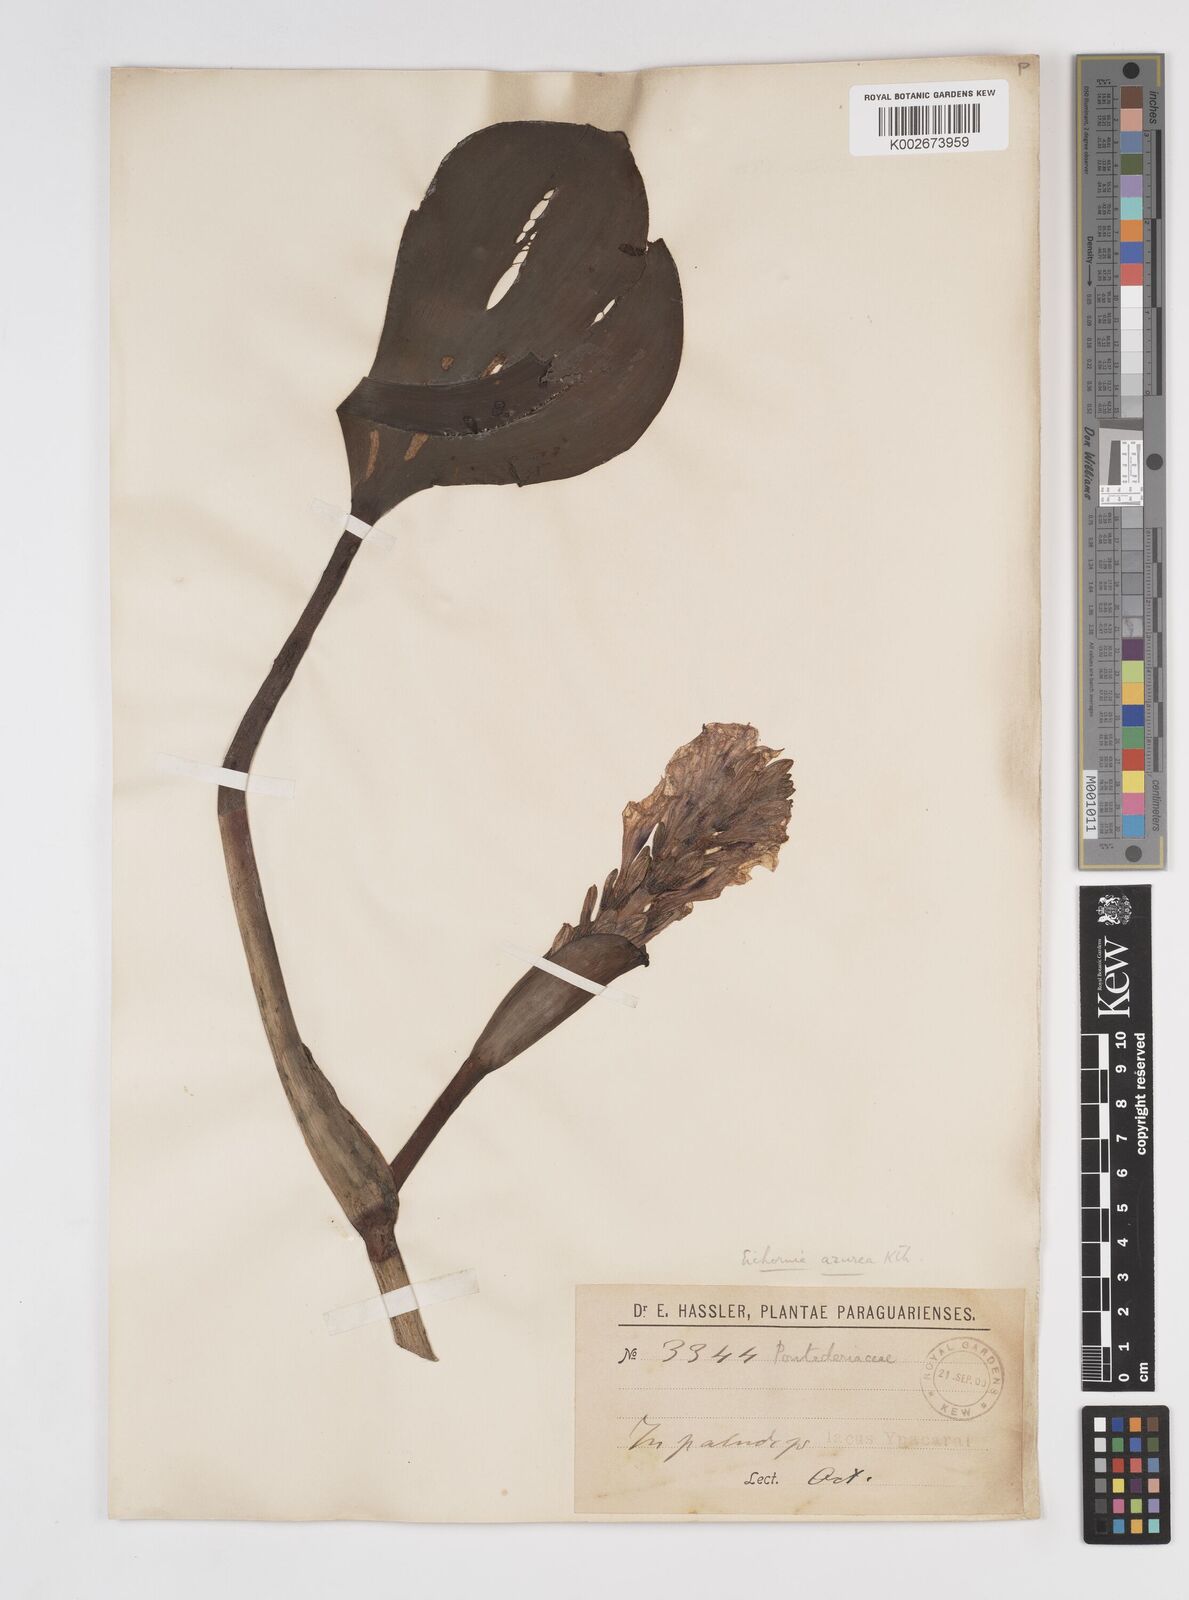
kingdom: Plantae
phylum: Tracheophyta
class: Liliopsida
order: Commelinales
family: Pontederiaceae
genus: Pontederia
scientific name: Pontederia azurea
